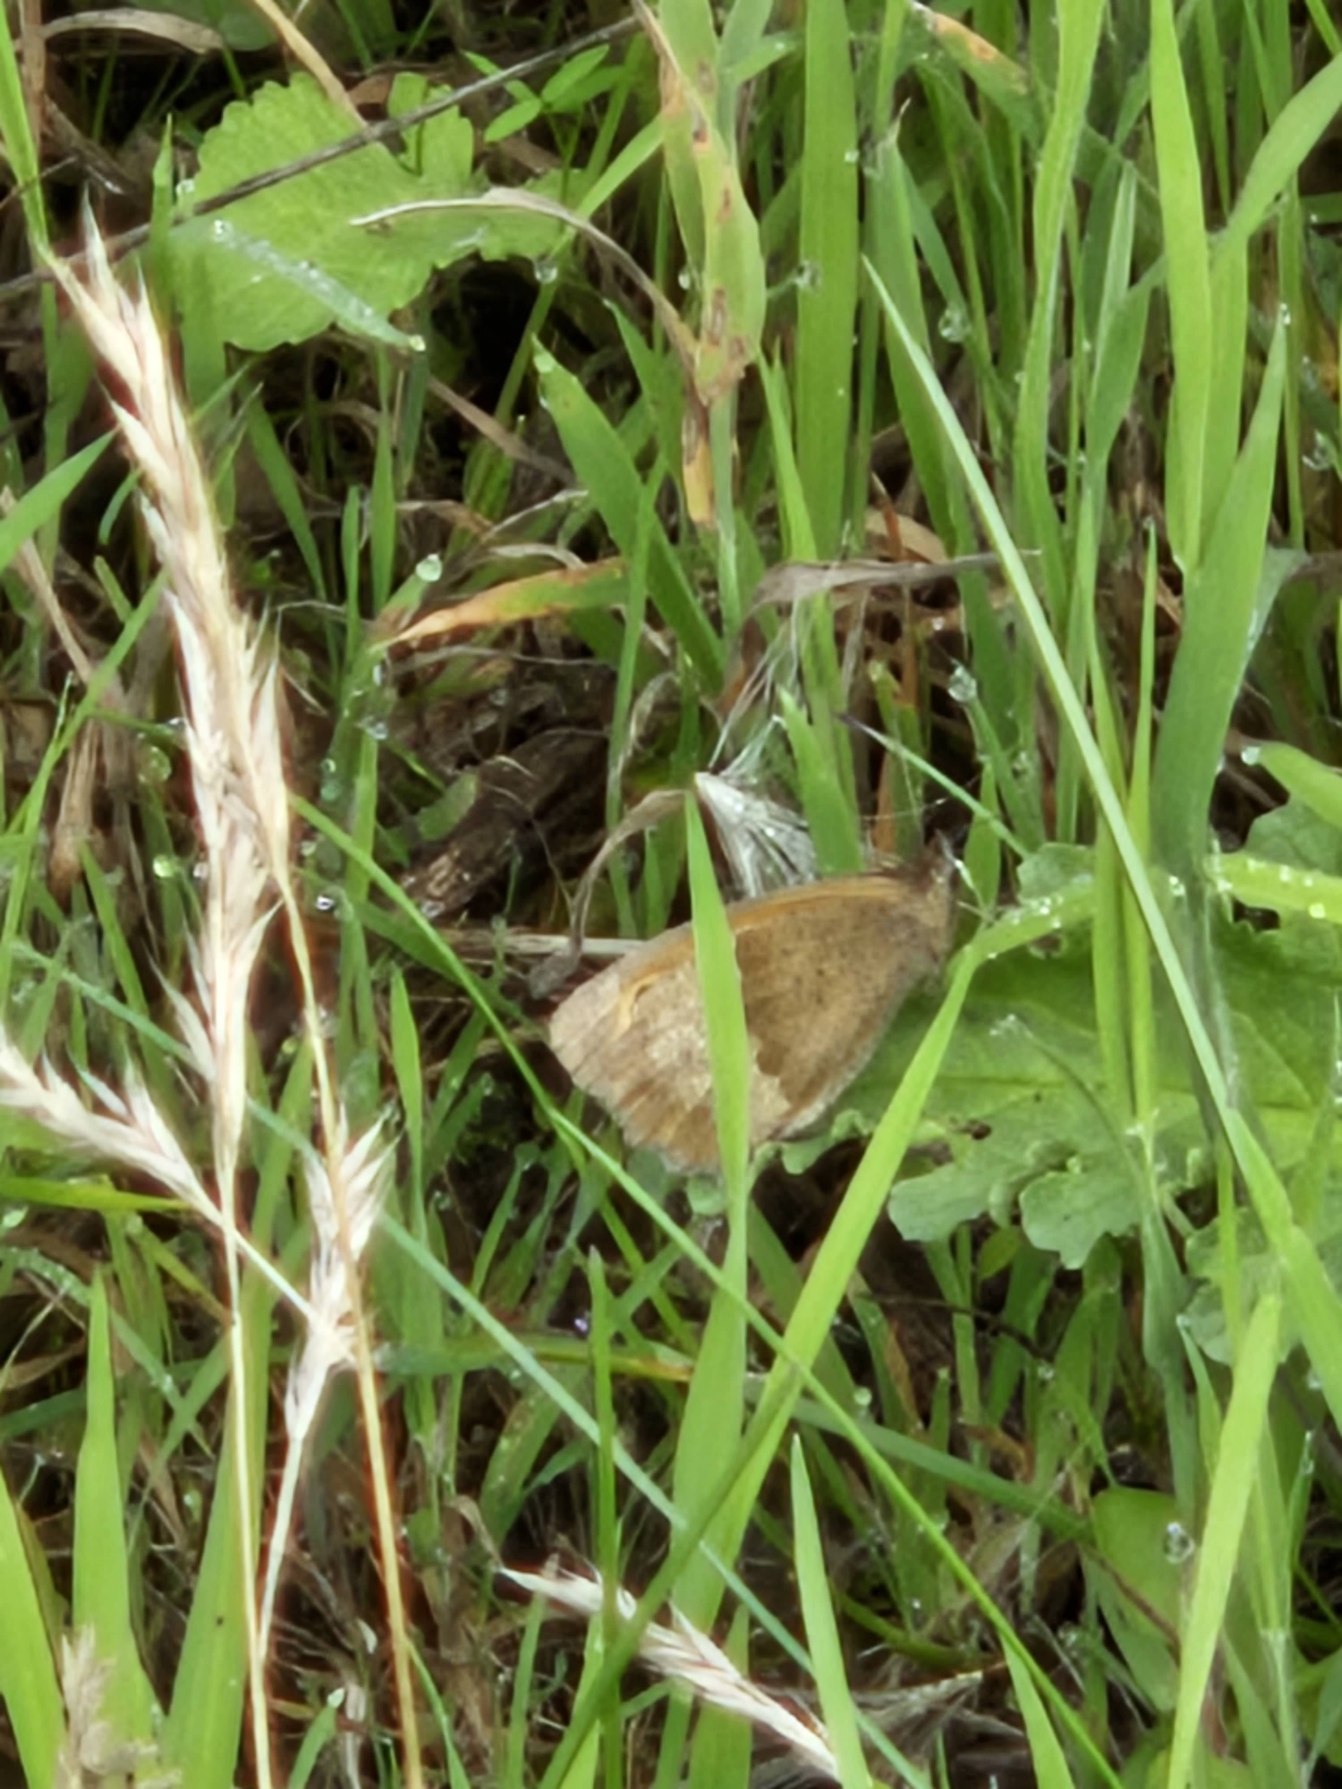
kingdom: Animalia
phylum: Arthropoda
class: Insecta
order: Lepidoptera
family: Nymphalidae
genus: Maniola
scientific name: Maniola jurtina
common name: Græsrandøje
